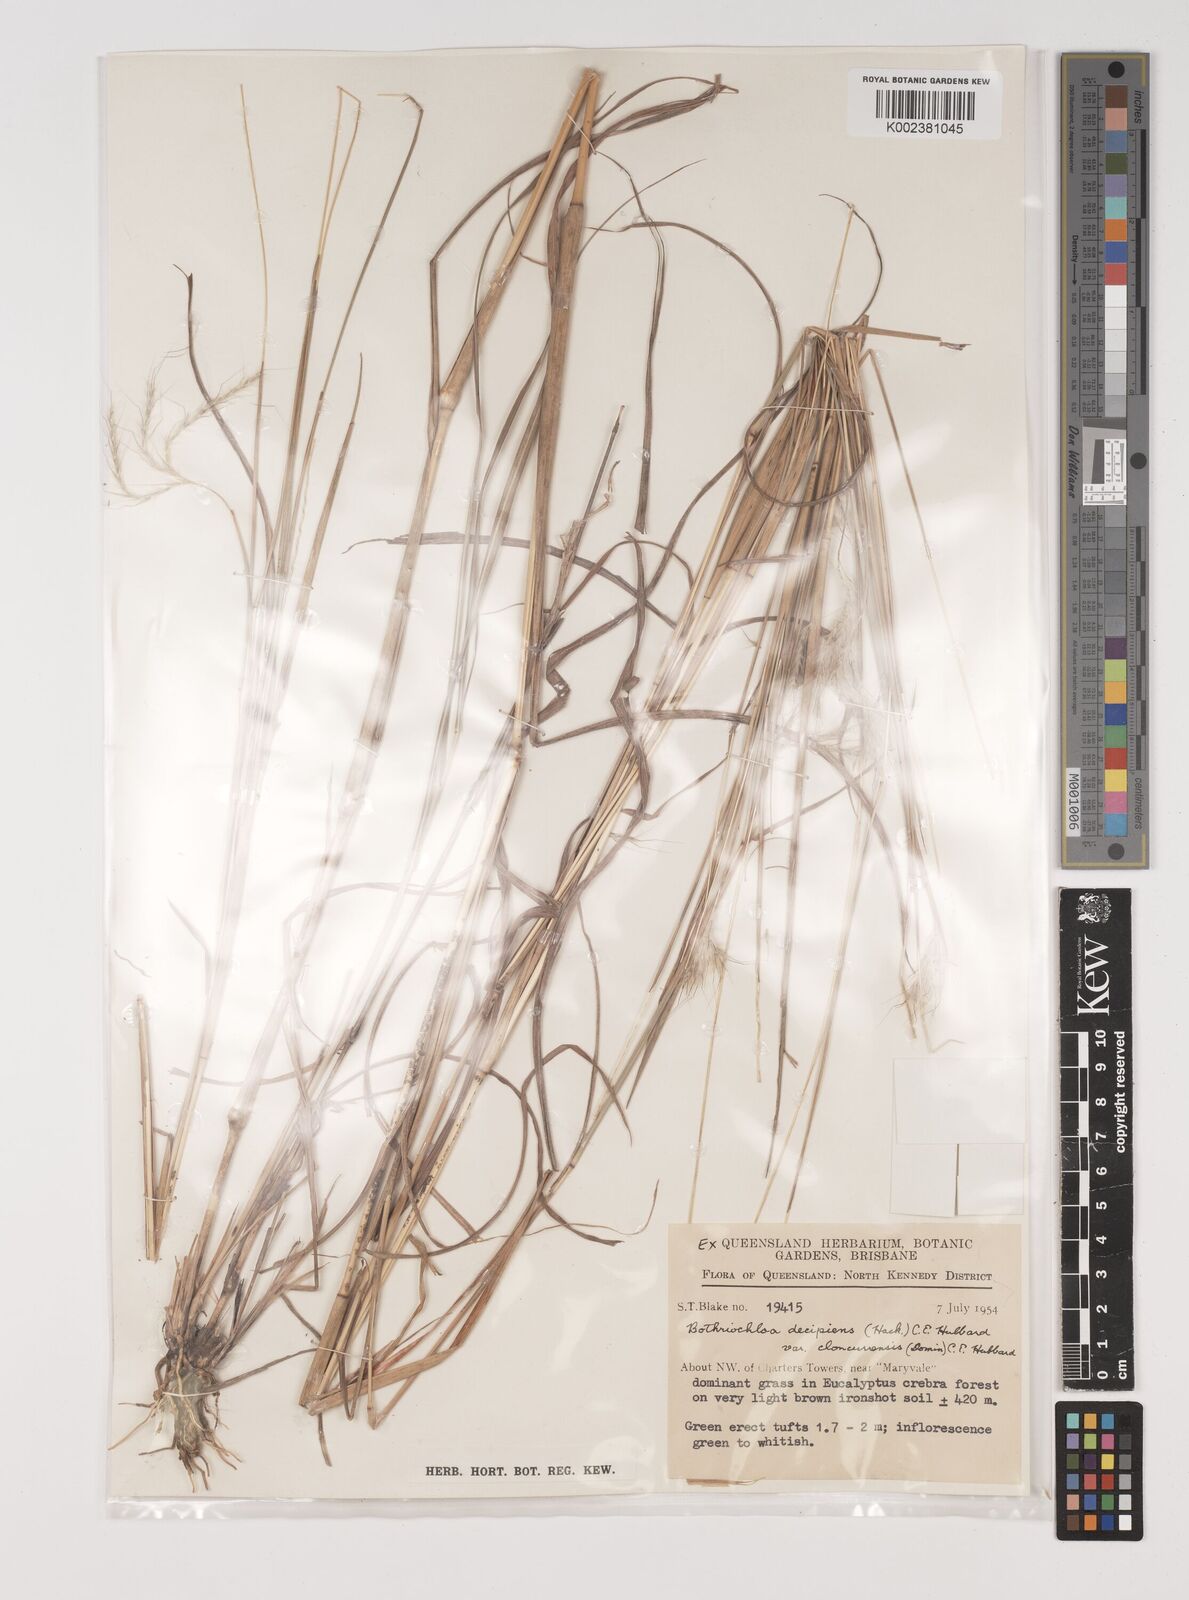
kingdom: Plantae
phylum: Tracheophyta
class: Liliopsida
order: Poales
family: Poaceae
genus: Bothriochloa
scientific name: Bothriochloa decipiens
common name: Pitted-bluegrass
